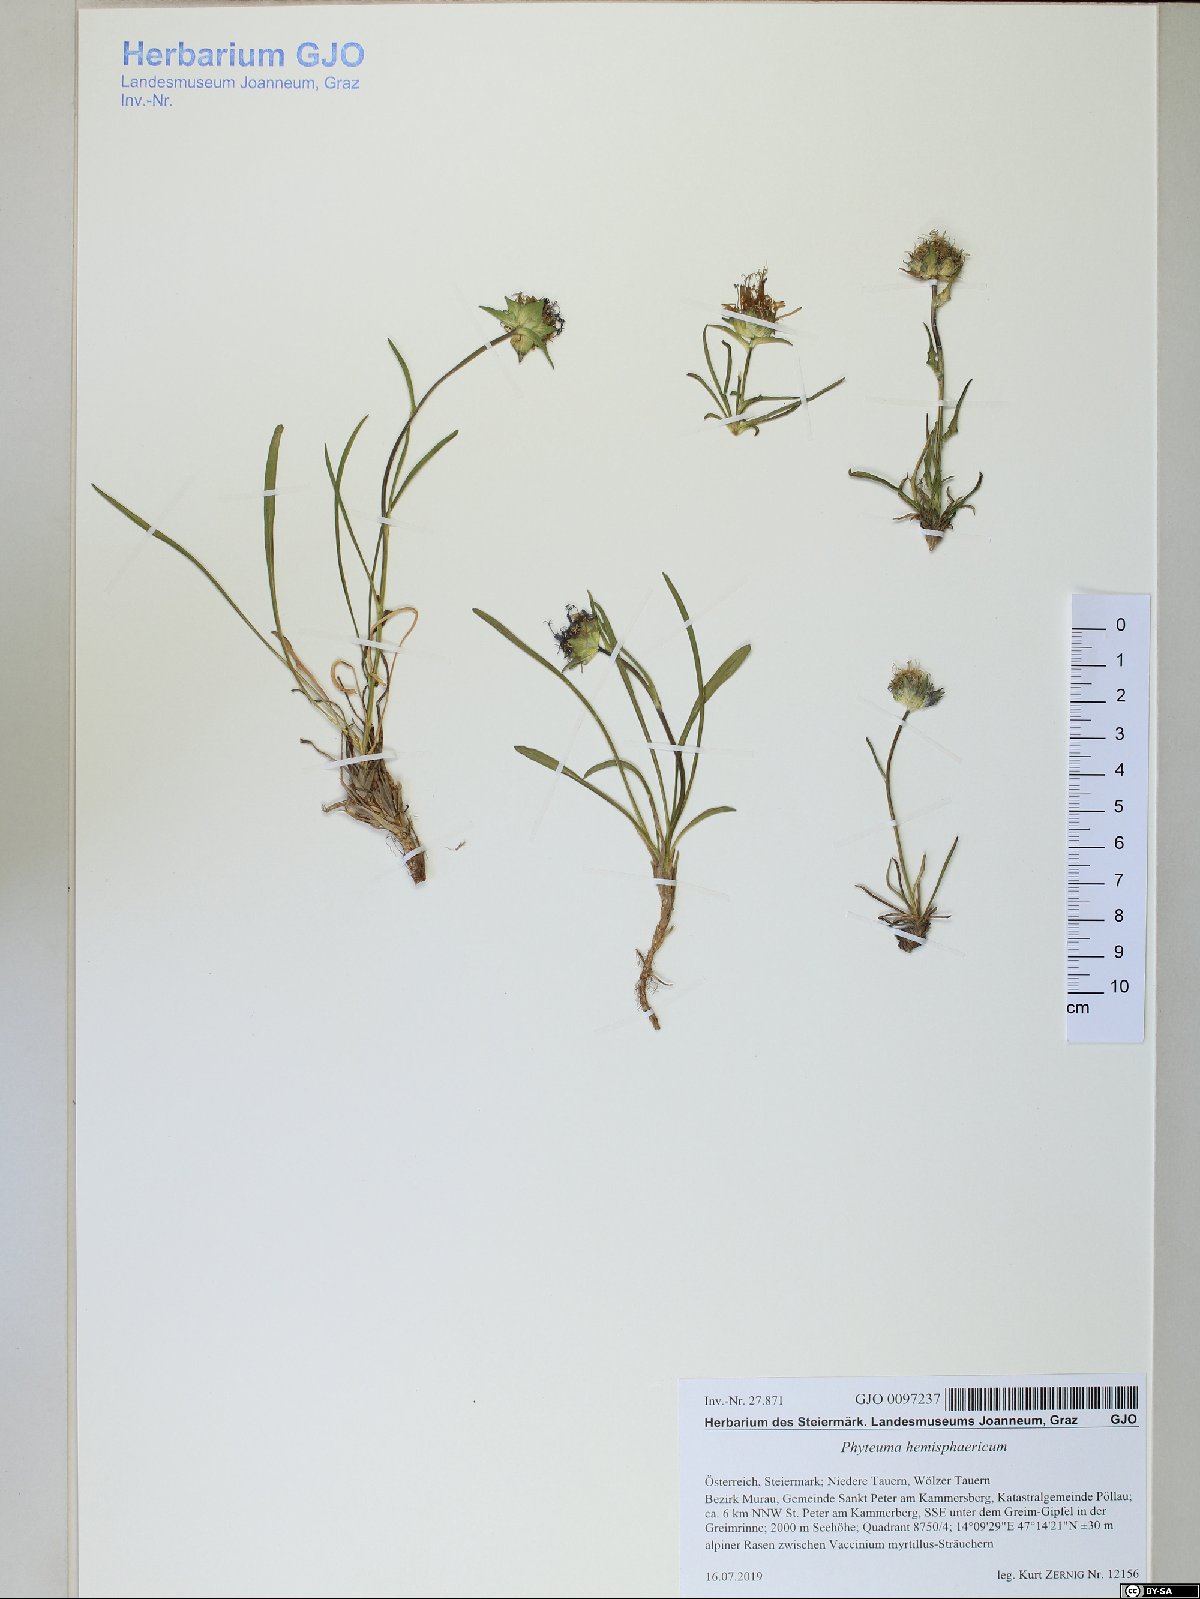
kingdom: Plantae
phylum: Tracheophyta
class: Magnoliopsida
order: Asterales
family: Campanulaceae
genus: Phyteuma
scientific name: Phyteuma confusum
